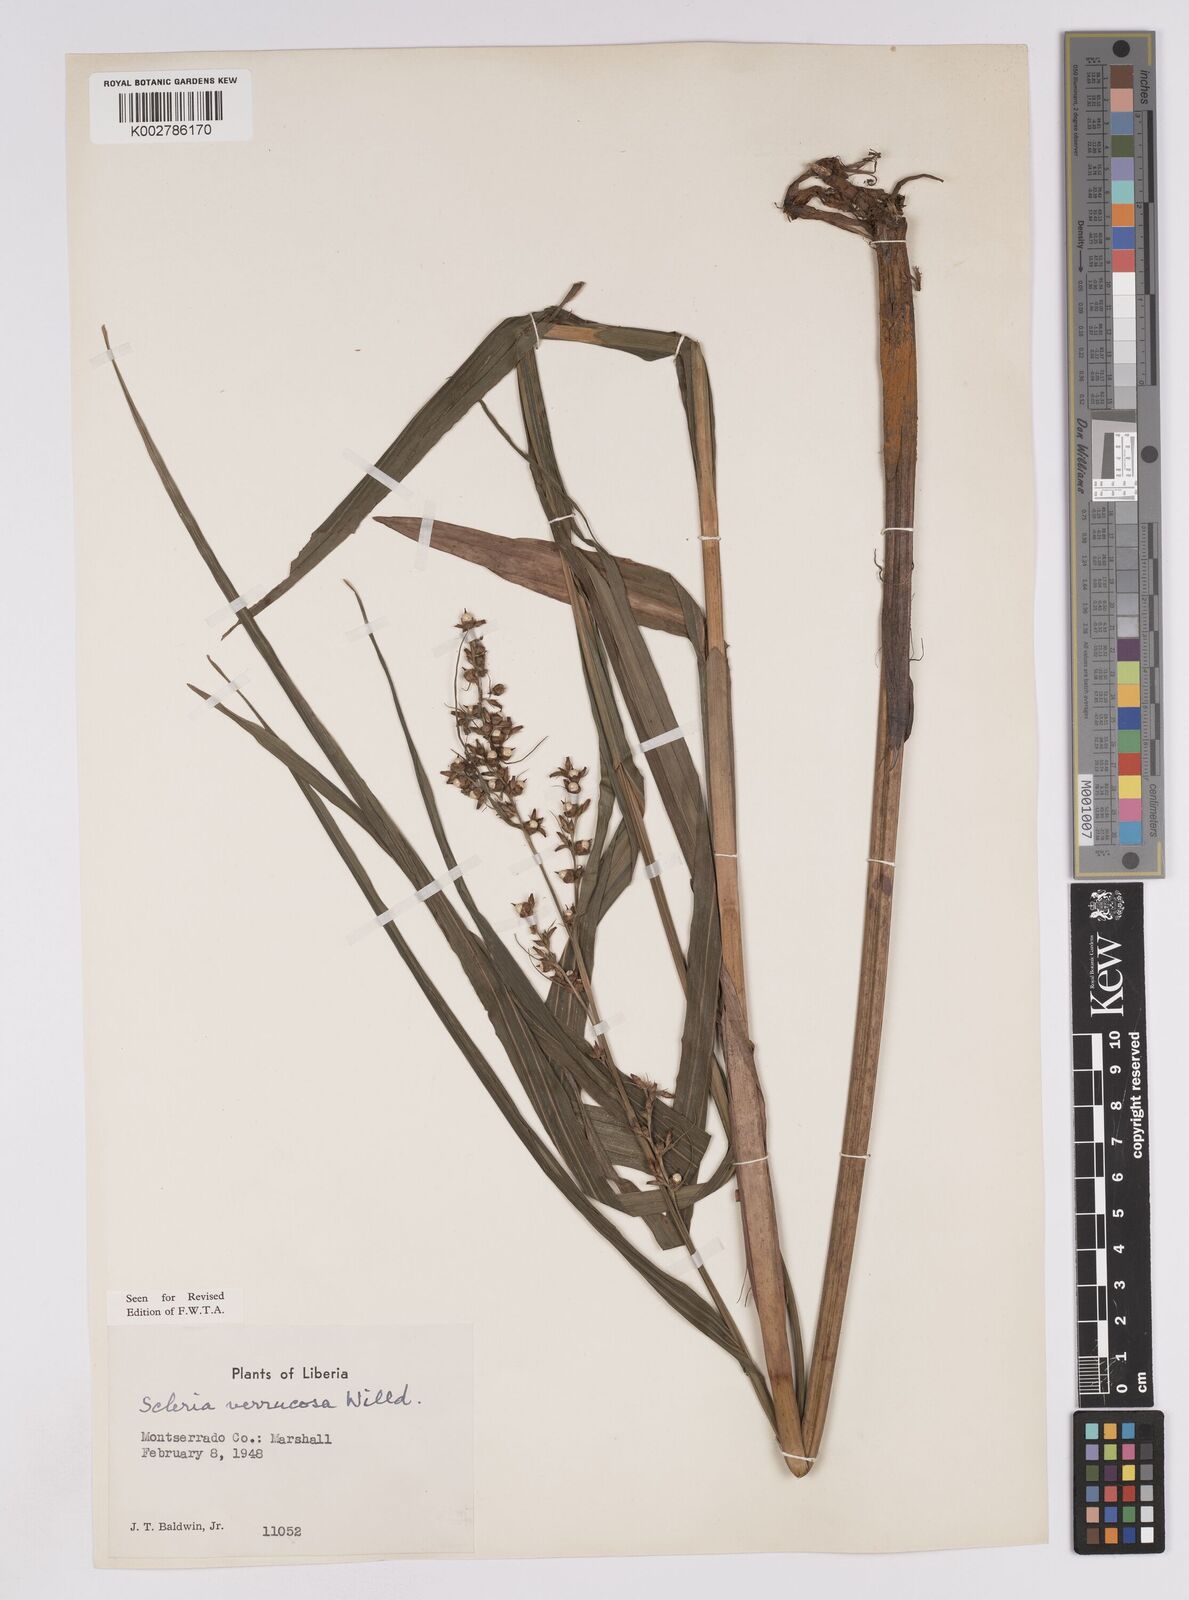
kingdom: Plantae
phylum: Tracheophyta
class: Liliopsida
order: Poales
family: Cyperaceae
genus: Scleria
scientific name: Scleria verrucosa
